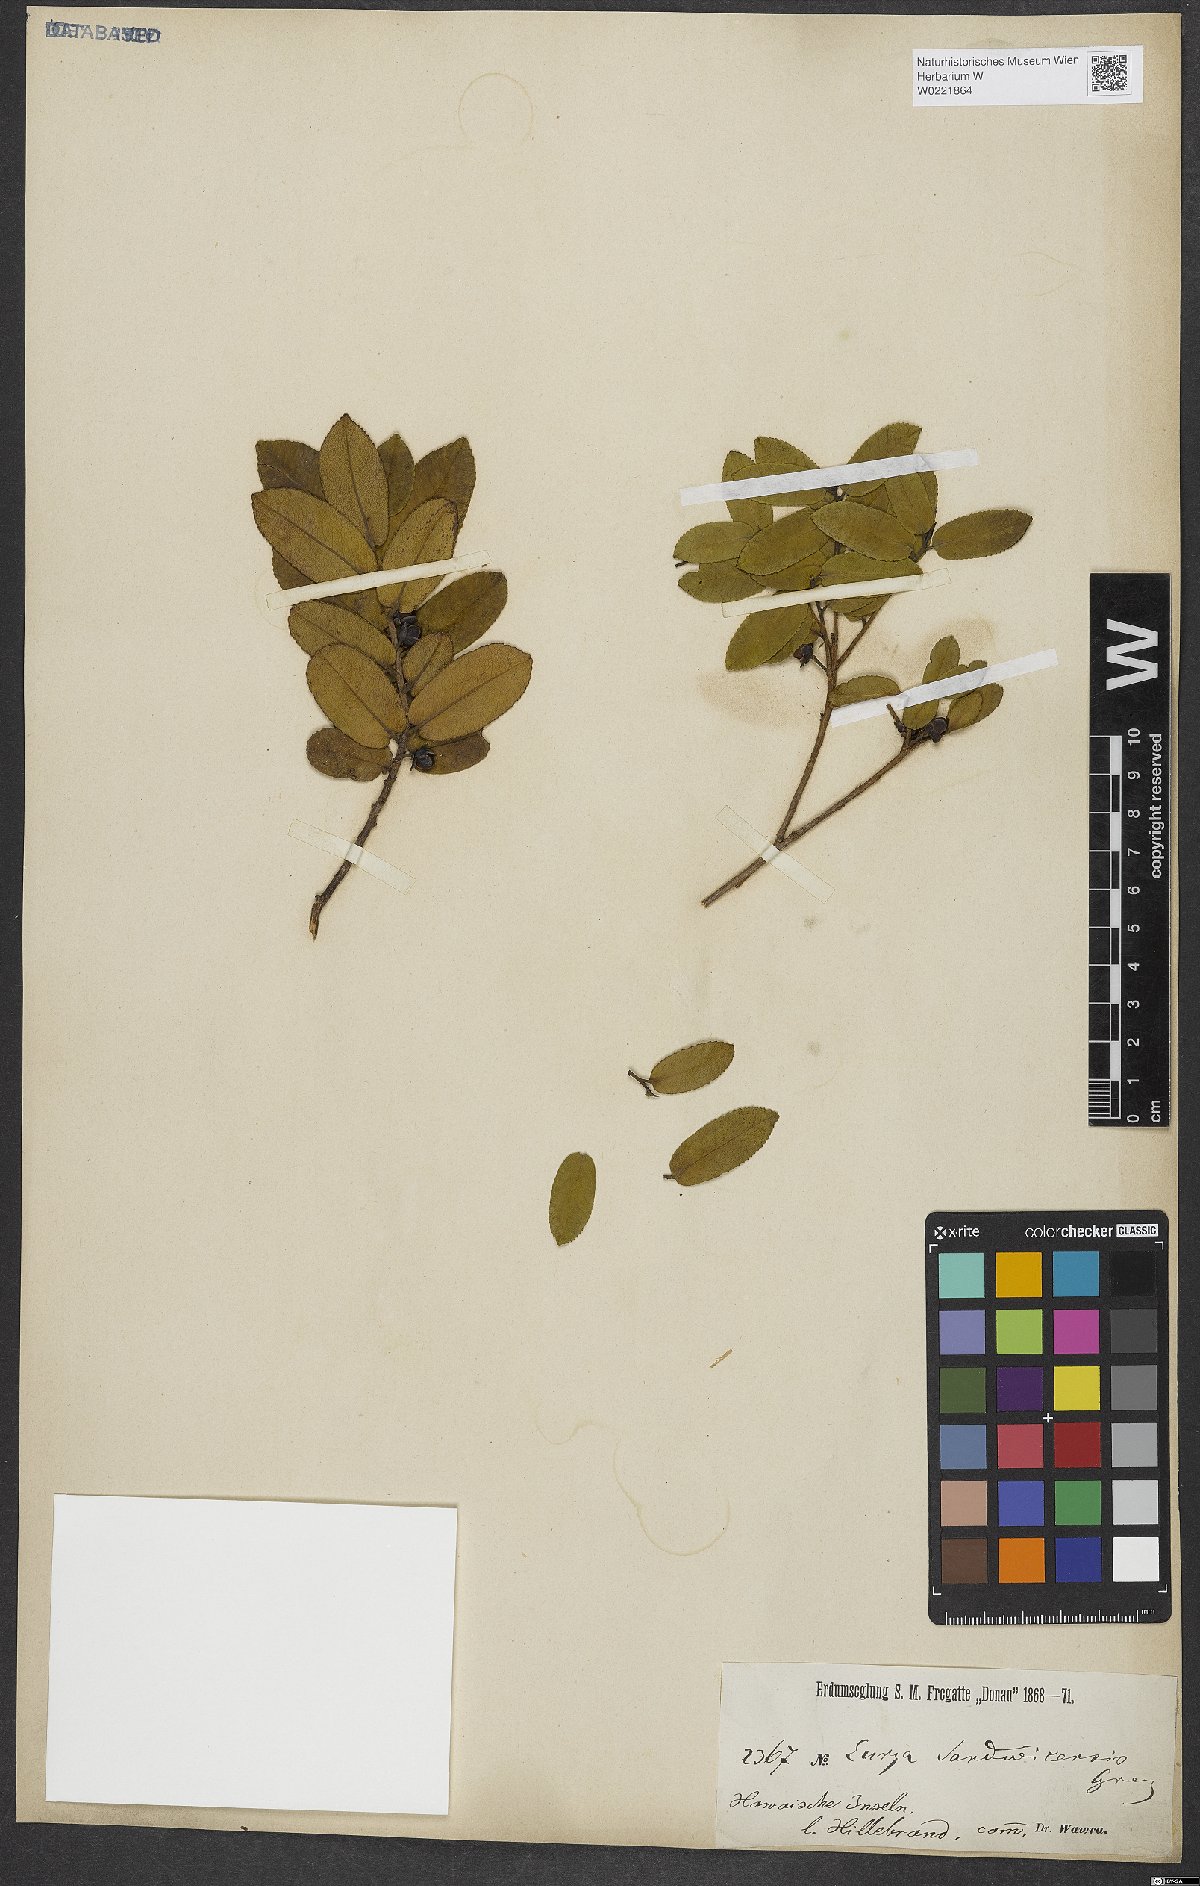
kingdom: Plantae
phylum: Tracheophyta
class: Magnoliopsida
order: Ericales
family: Pentaphylacaceae
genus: Eurya
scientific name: Eurya sandwicensis
